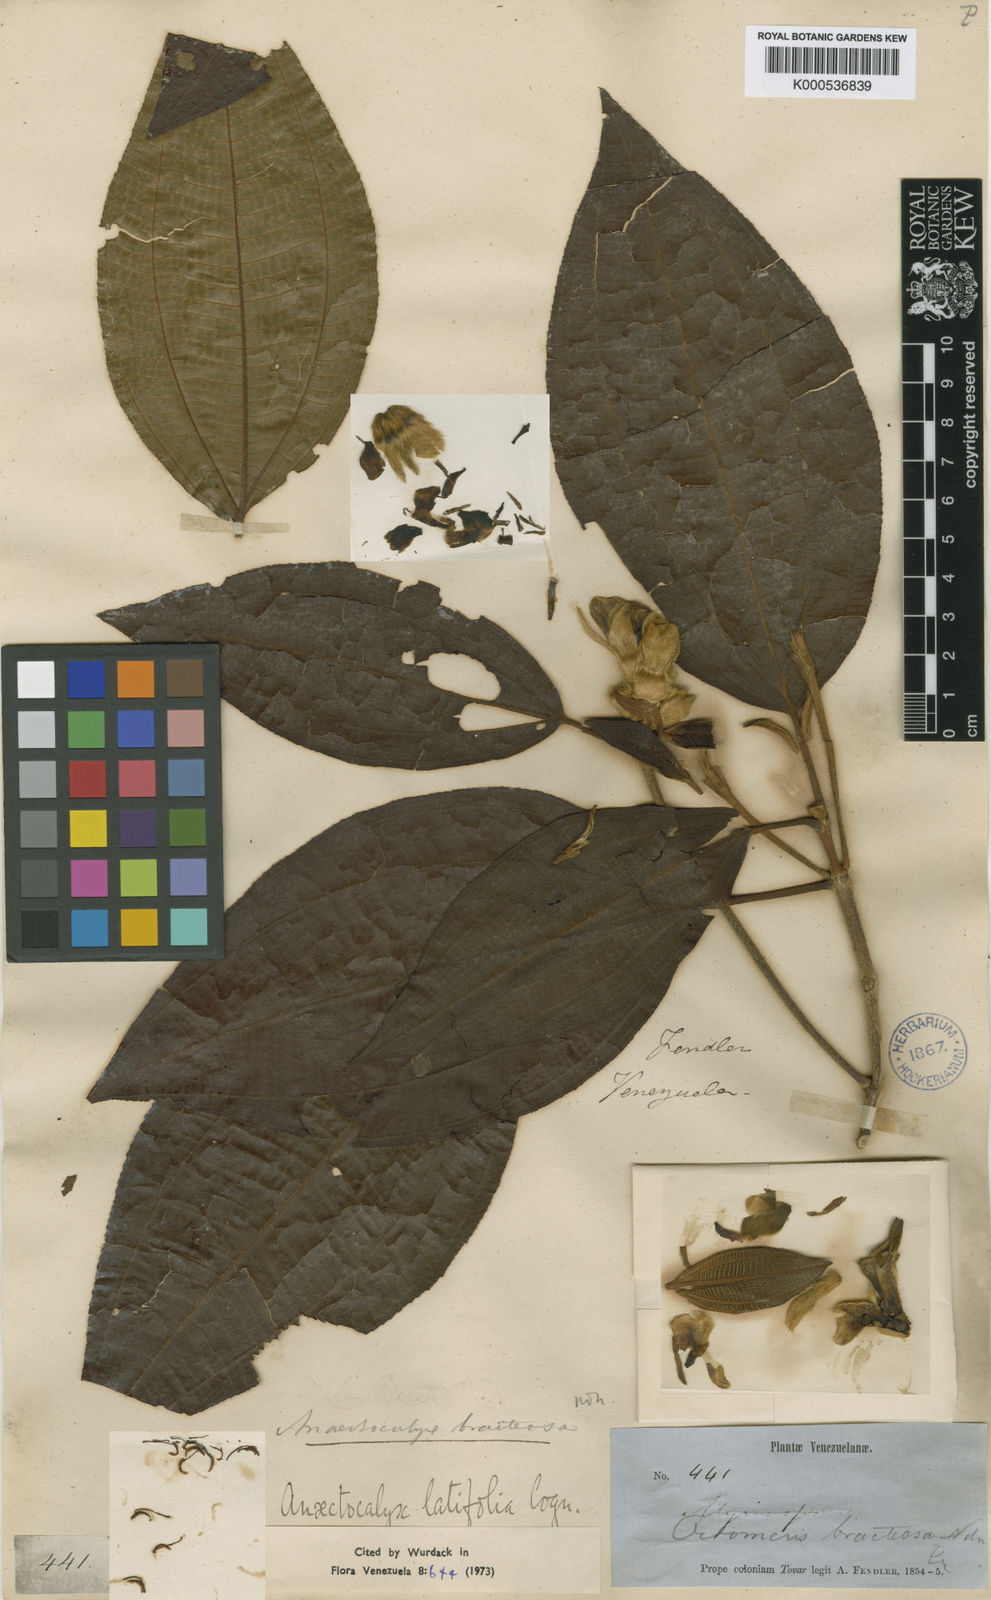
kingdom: Plantae
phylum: Tracheophyta
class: Magnoliopsida
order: Myrtales
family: Melastomataceae
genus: Miconia
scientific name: Miconia anaectocalyx
